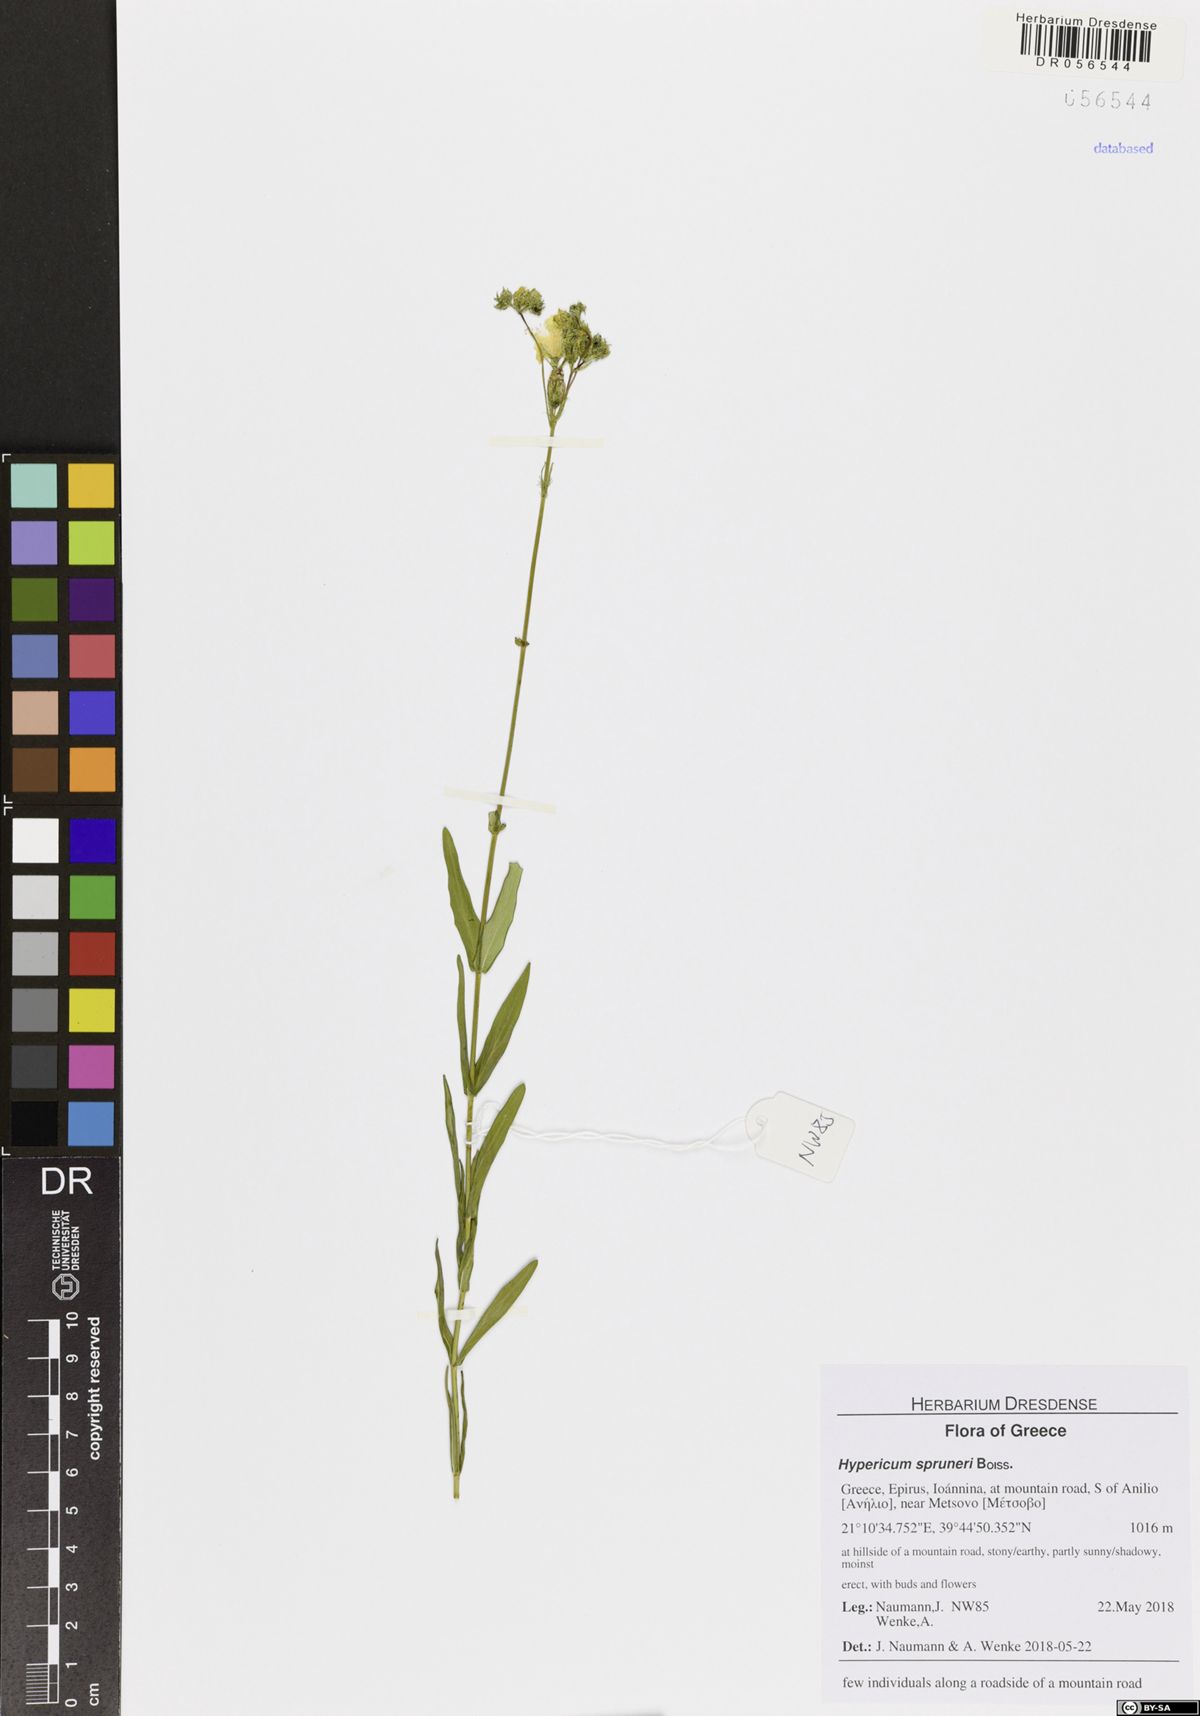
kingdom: Plantae
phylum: Tracheophyta
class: Magnoliopsida
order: Malpighiales
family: Hypericaceae
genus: Hypericum
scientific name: Hypericum spruneri
